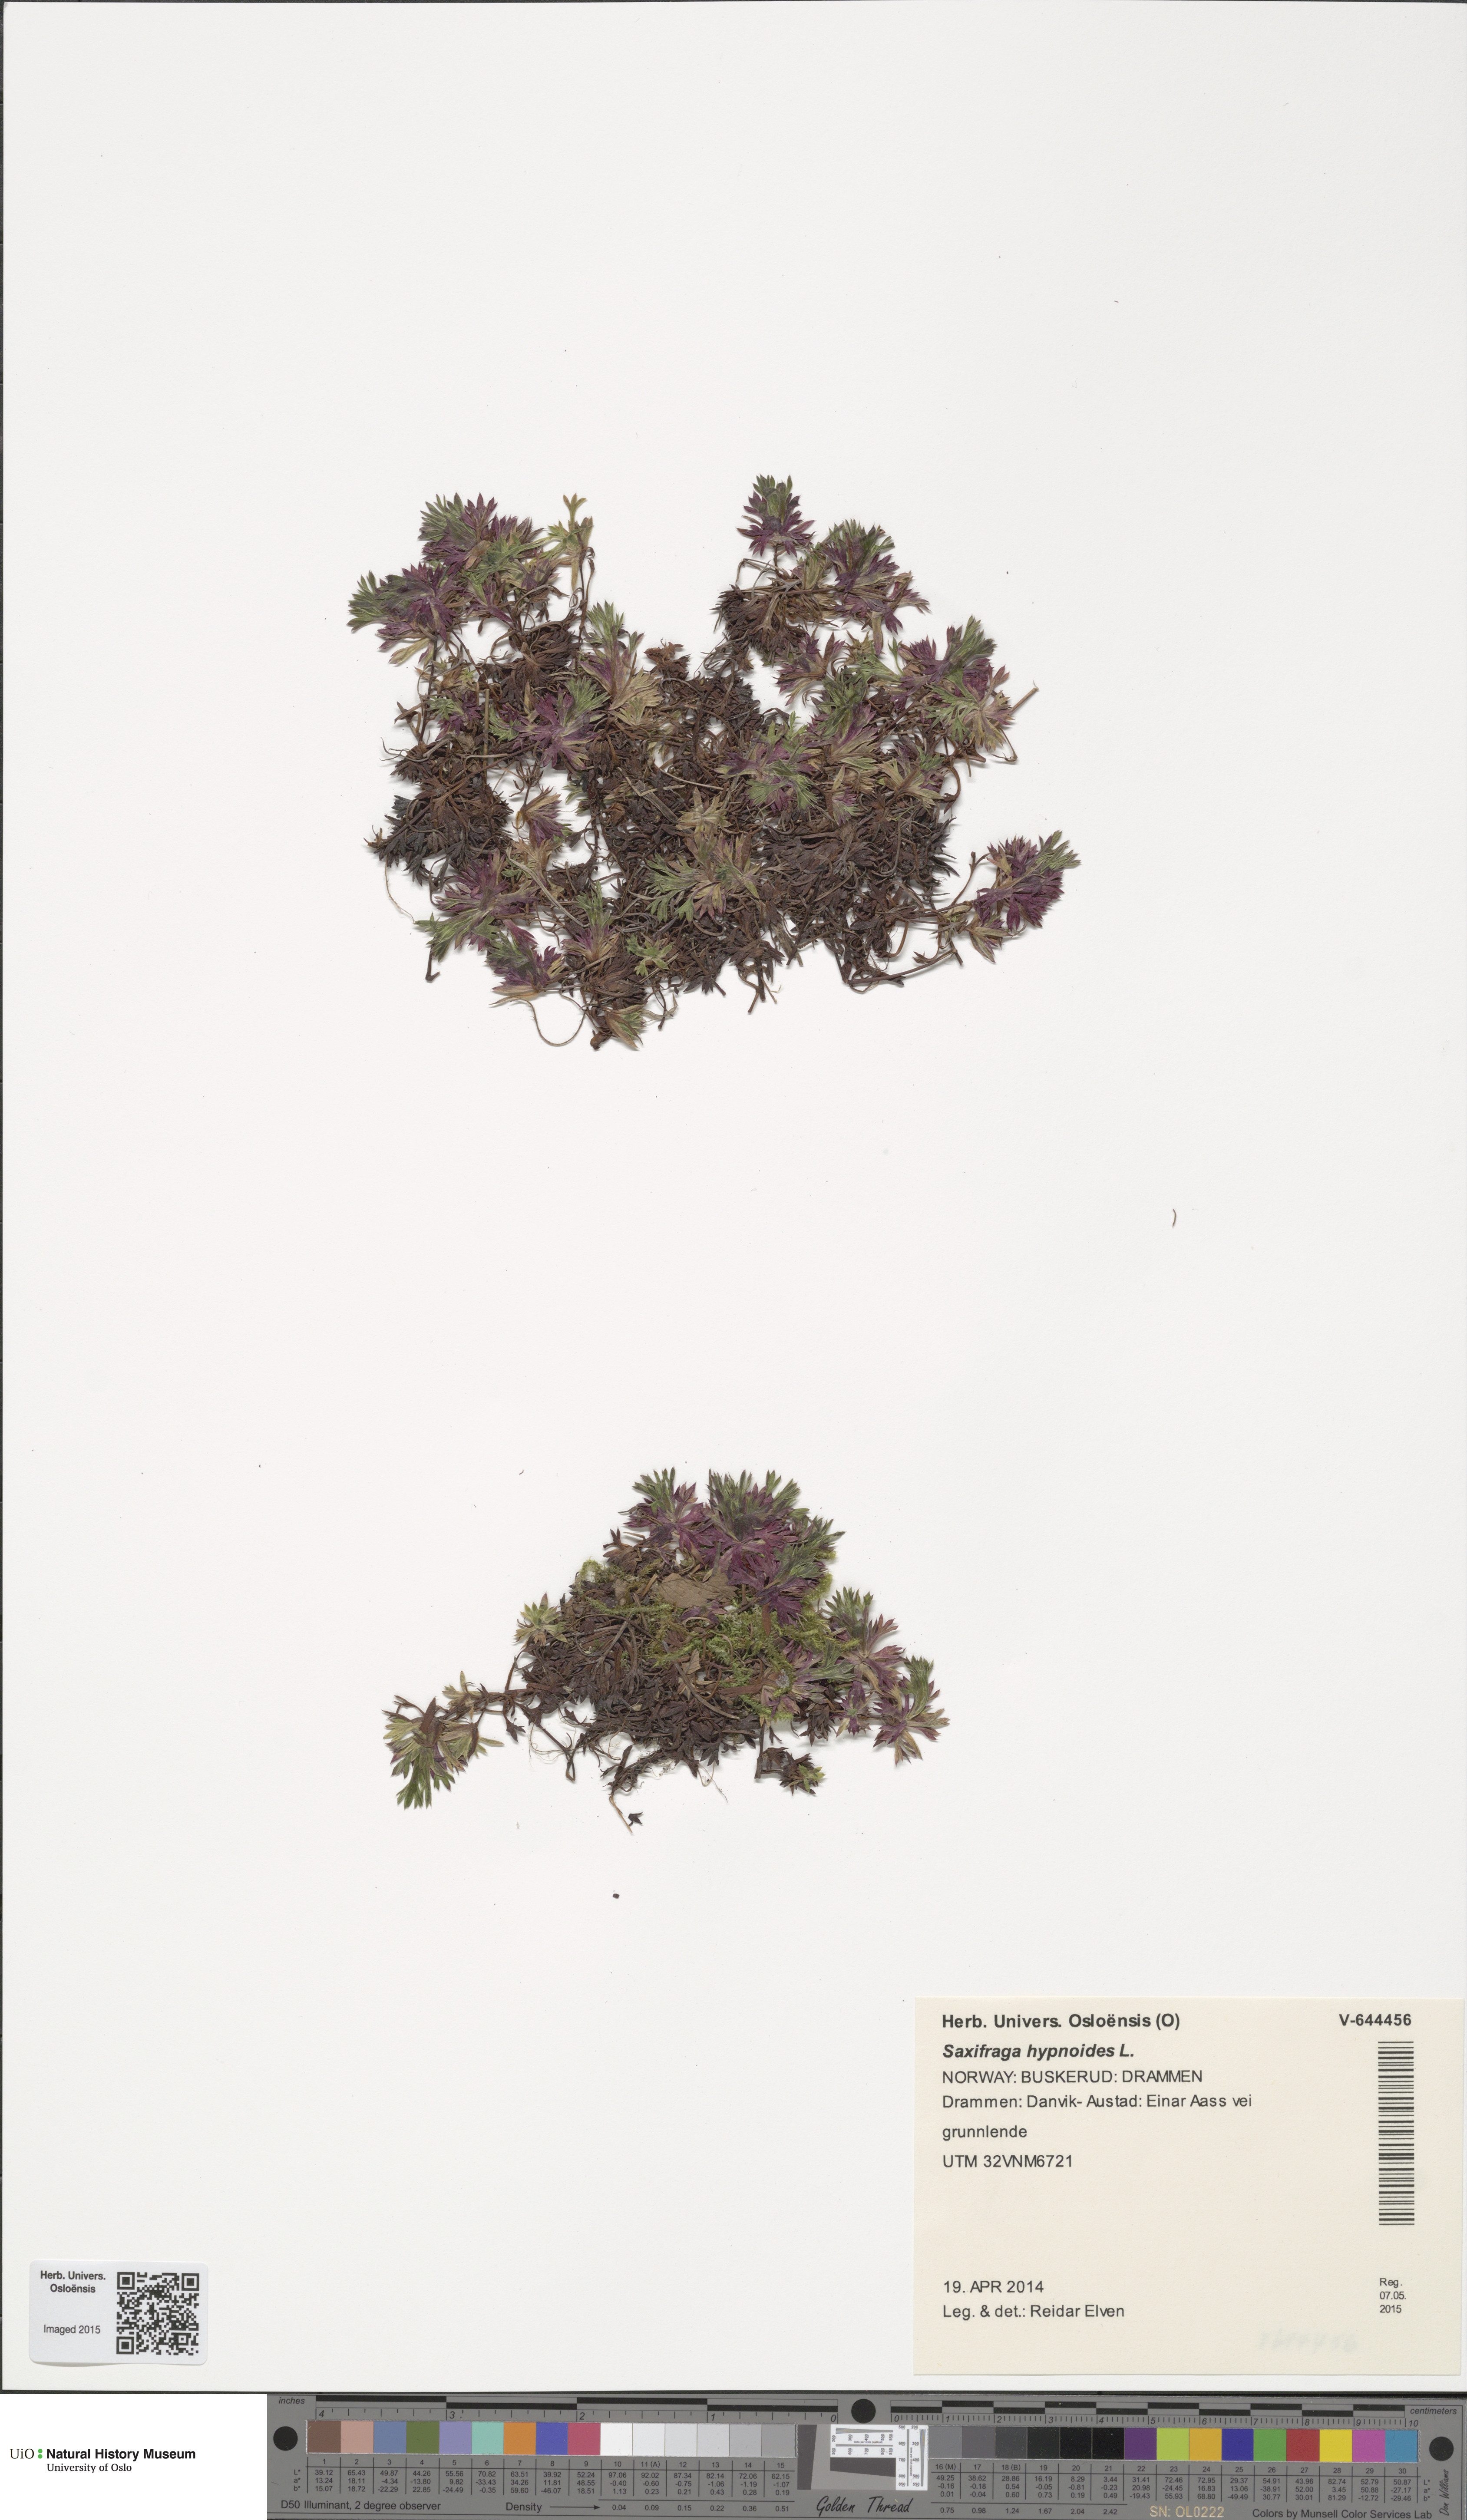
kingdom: Plantae
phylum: Tracheophyta
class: Magnoliopsida
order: Saxifragales
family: Saxifragaceae
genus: Saxifraga
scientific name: Saxifraga hypnoides
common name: Mossy saxifrage
